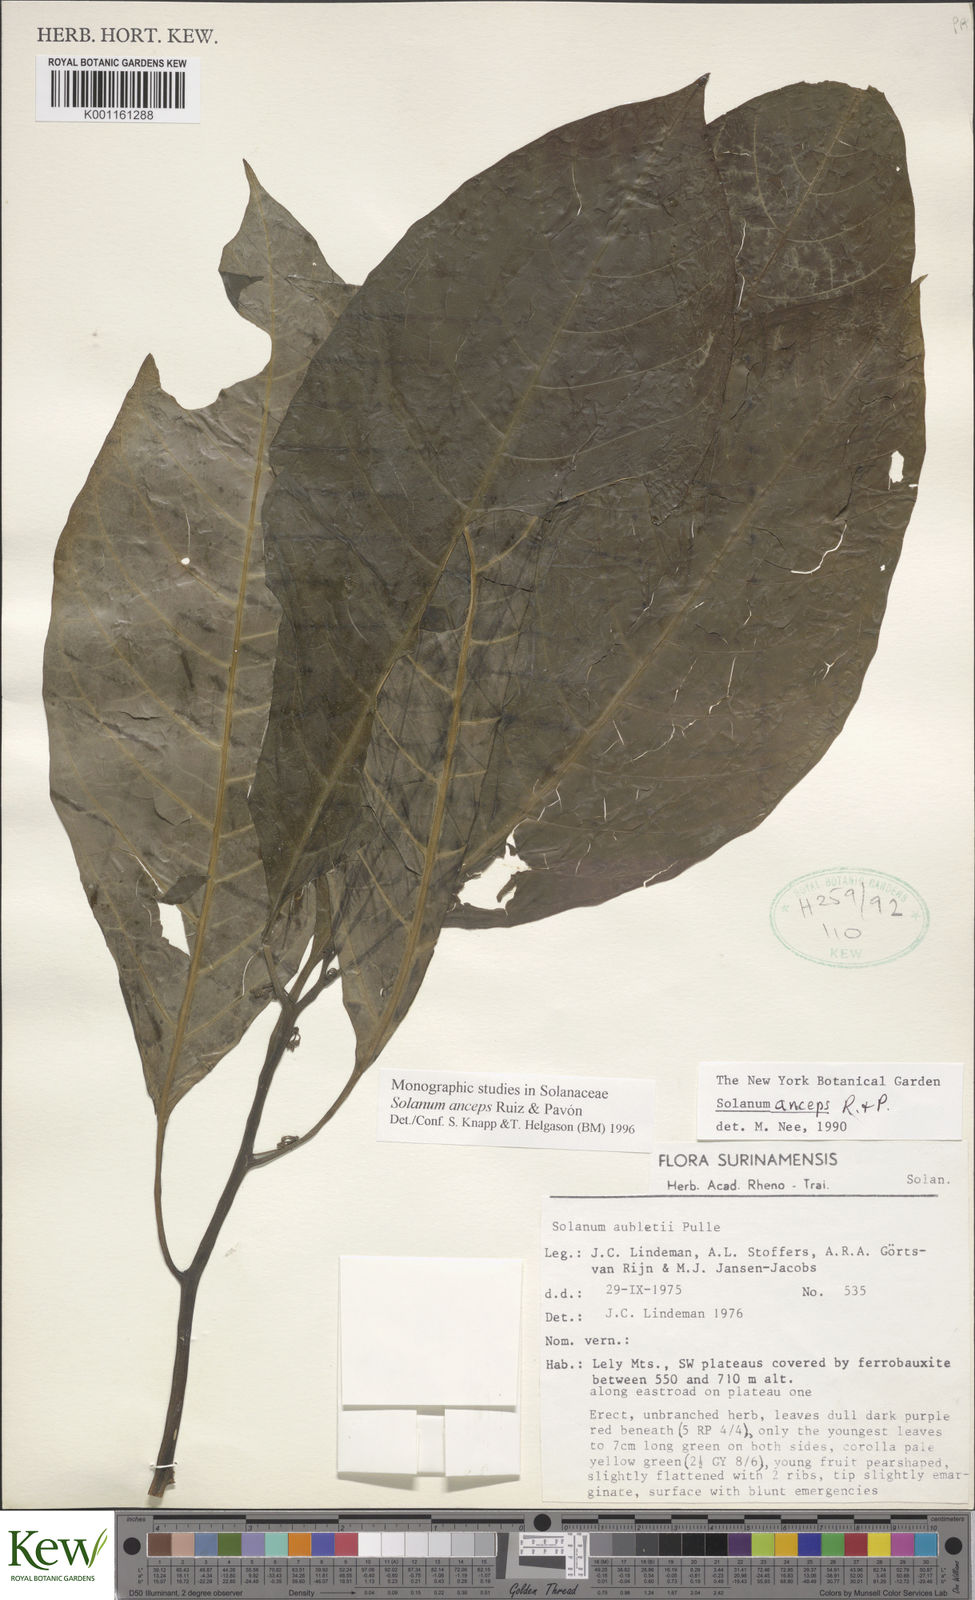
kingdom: Plantae
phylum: Tracheophyta
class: Magnoliopsida
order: Solanales
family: Solanaceae
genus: Solanum
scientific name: Solanum anceps
